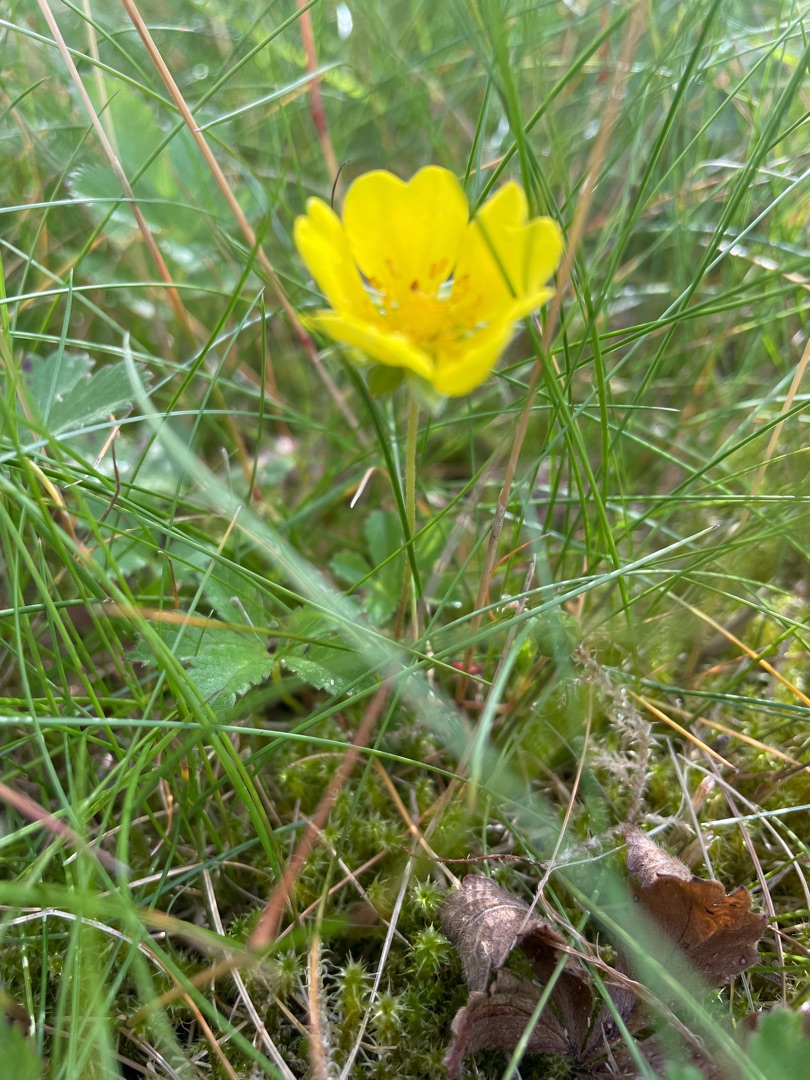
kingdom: Plantae
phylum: Tracheophyta
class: Magnoliopsida
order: Rosales
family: Rosaceae
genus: Potentilla
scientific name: Potentilla reptans
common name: Krybende potentil
